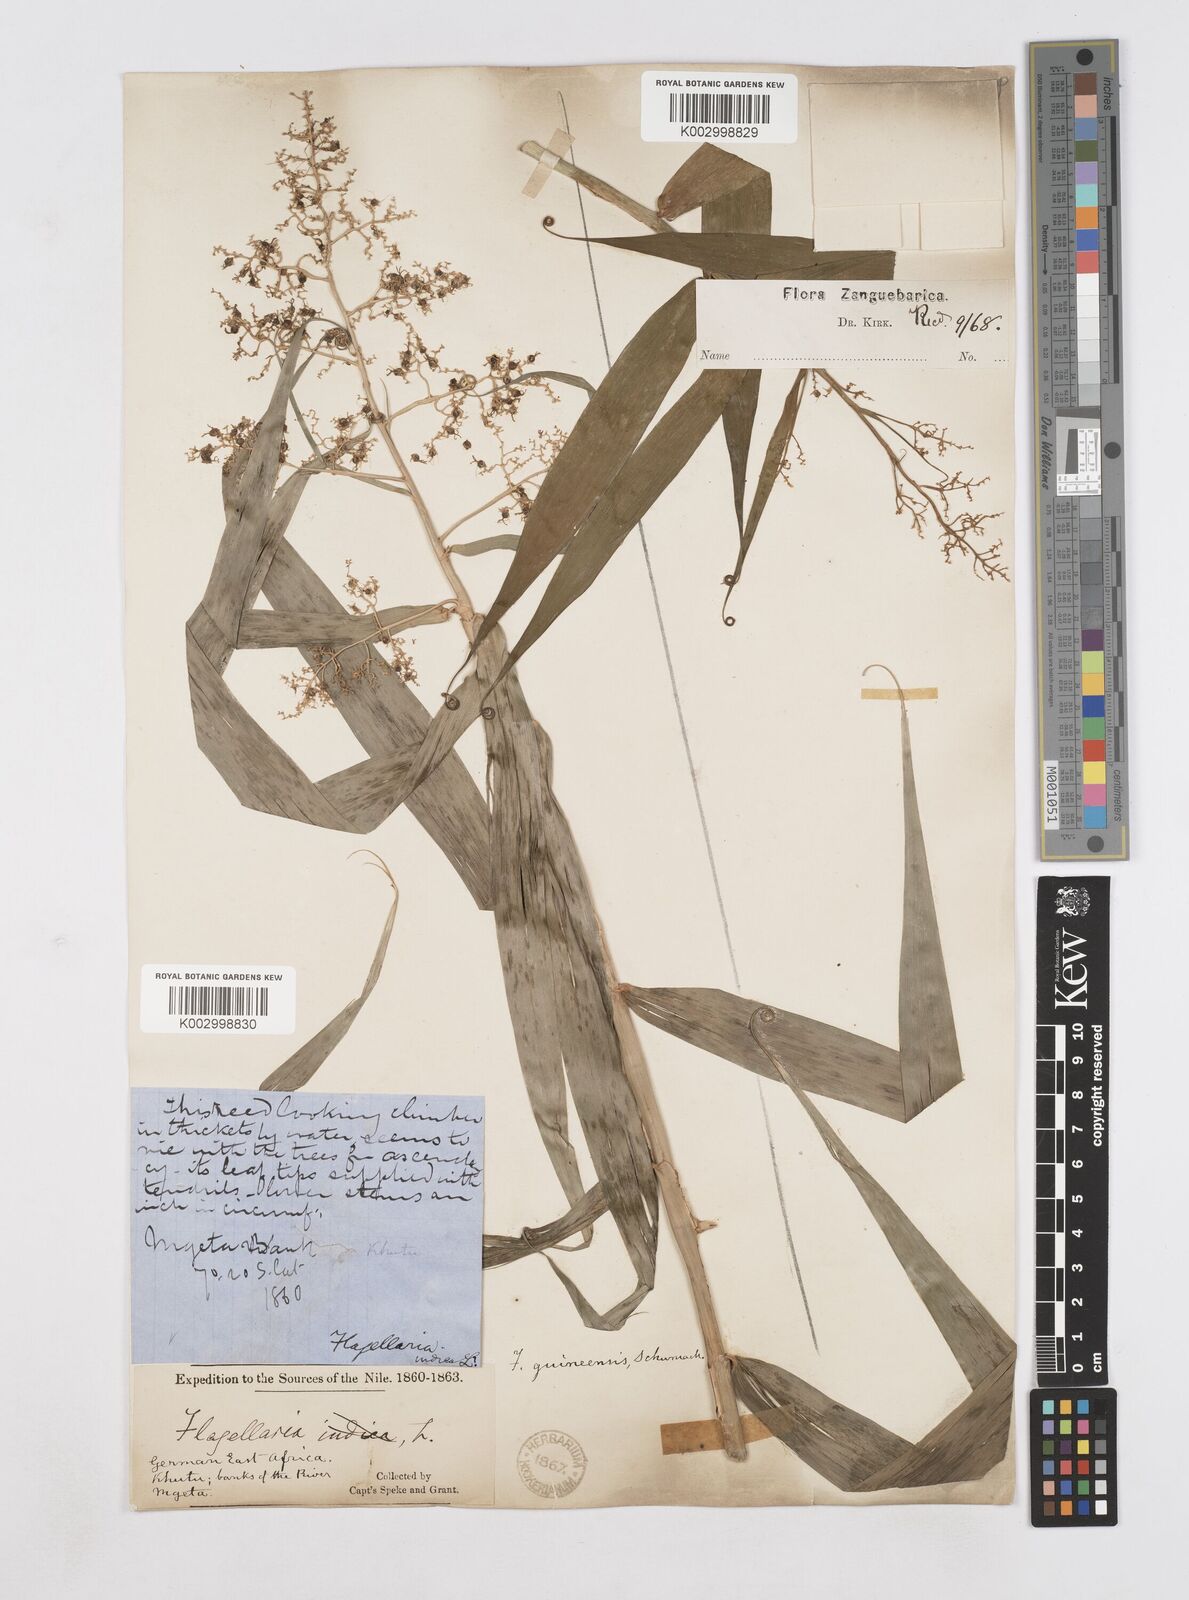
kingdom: Plantae
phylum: Tracheophyta
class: Liliopsida
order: Poales
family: Flagellariaceae
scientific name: Flagellariaceae
